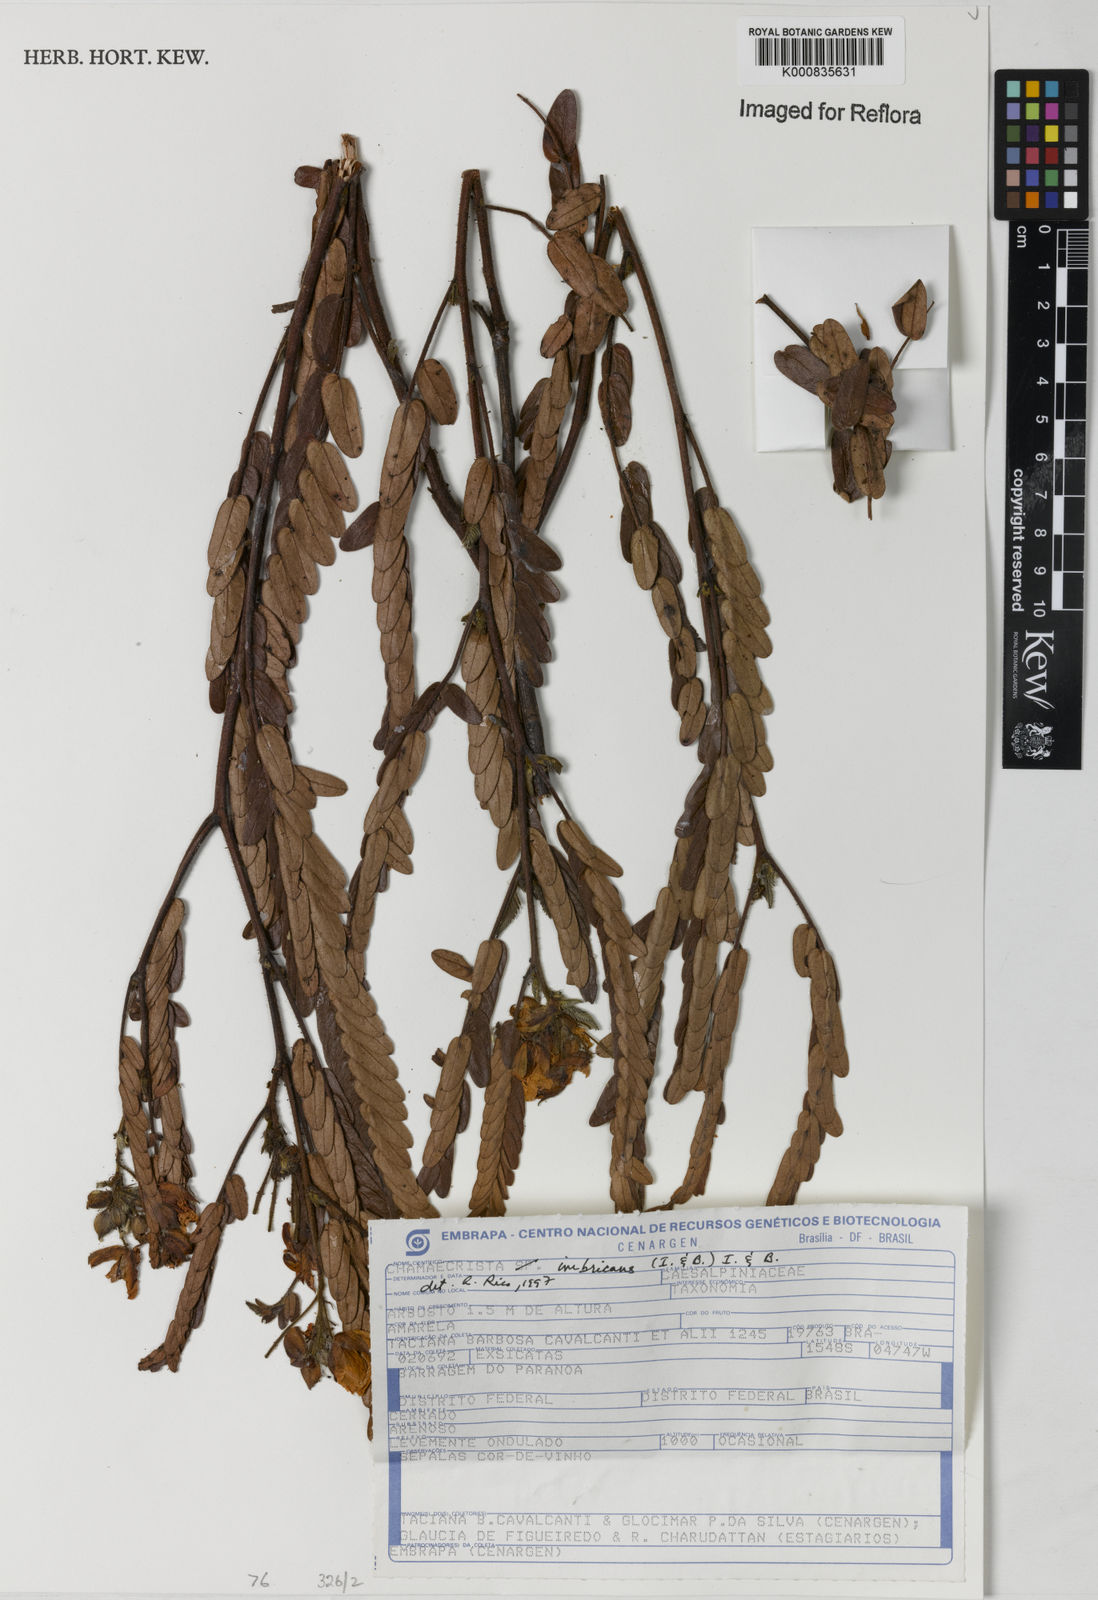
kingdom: Plantae
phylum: Tracheophyta
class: Magnoliopsida
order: Fabales
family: Fabaceae
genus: Chamaecrista
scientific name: Chamaecrista imbricans
